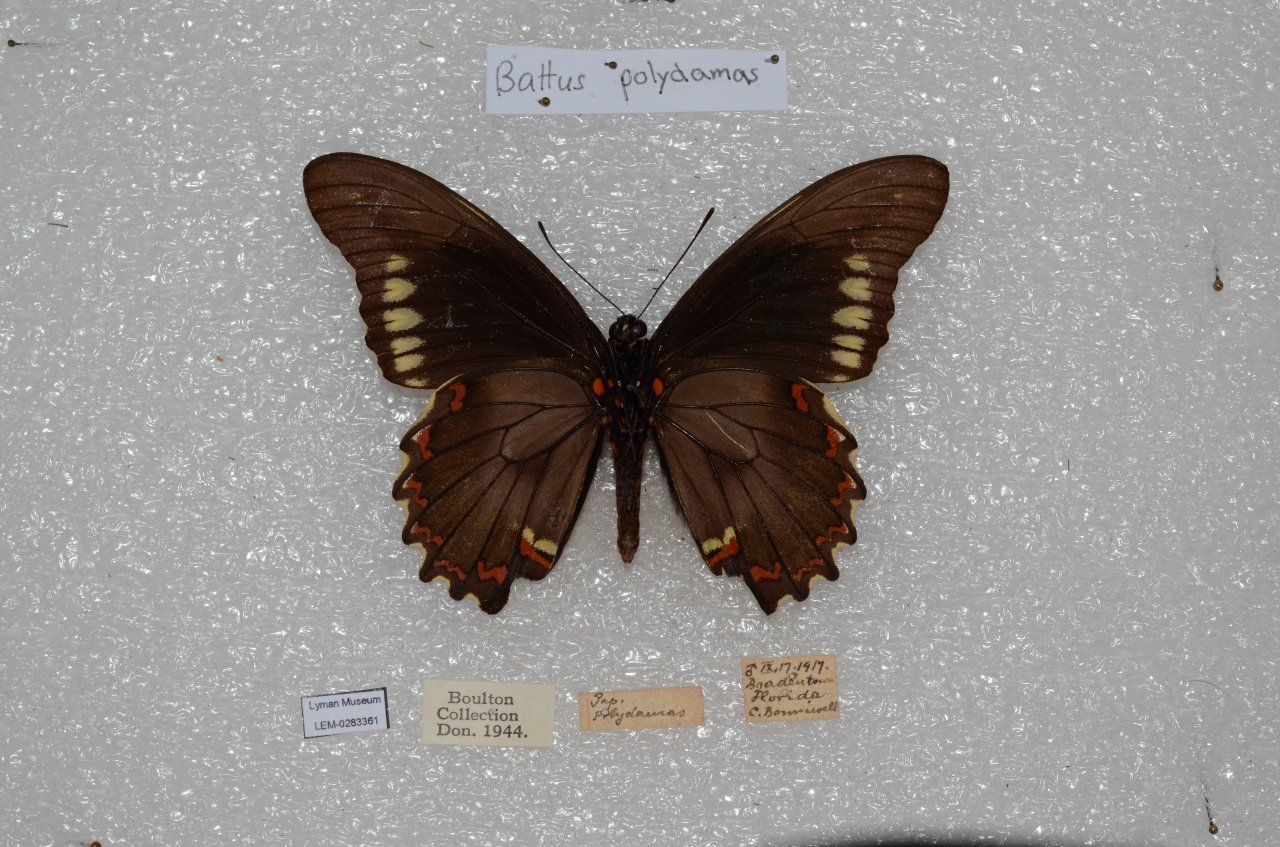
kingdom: Animalia
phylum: Arthropoda
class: Insecta
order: Lepidoptera
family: Papilionidae
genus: Battus
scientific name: Battus polydamas
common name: Polydamas Swallowtail
